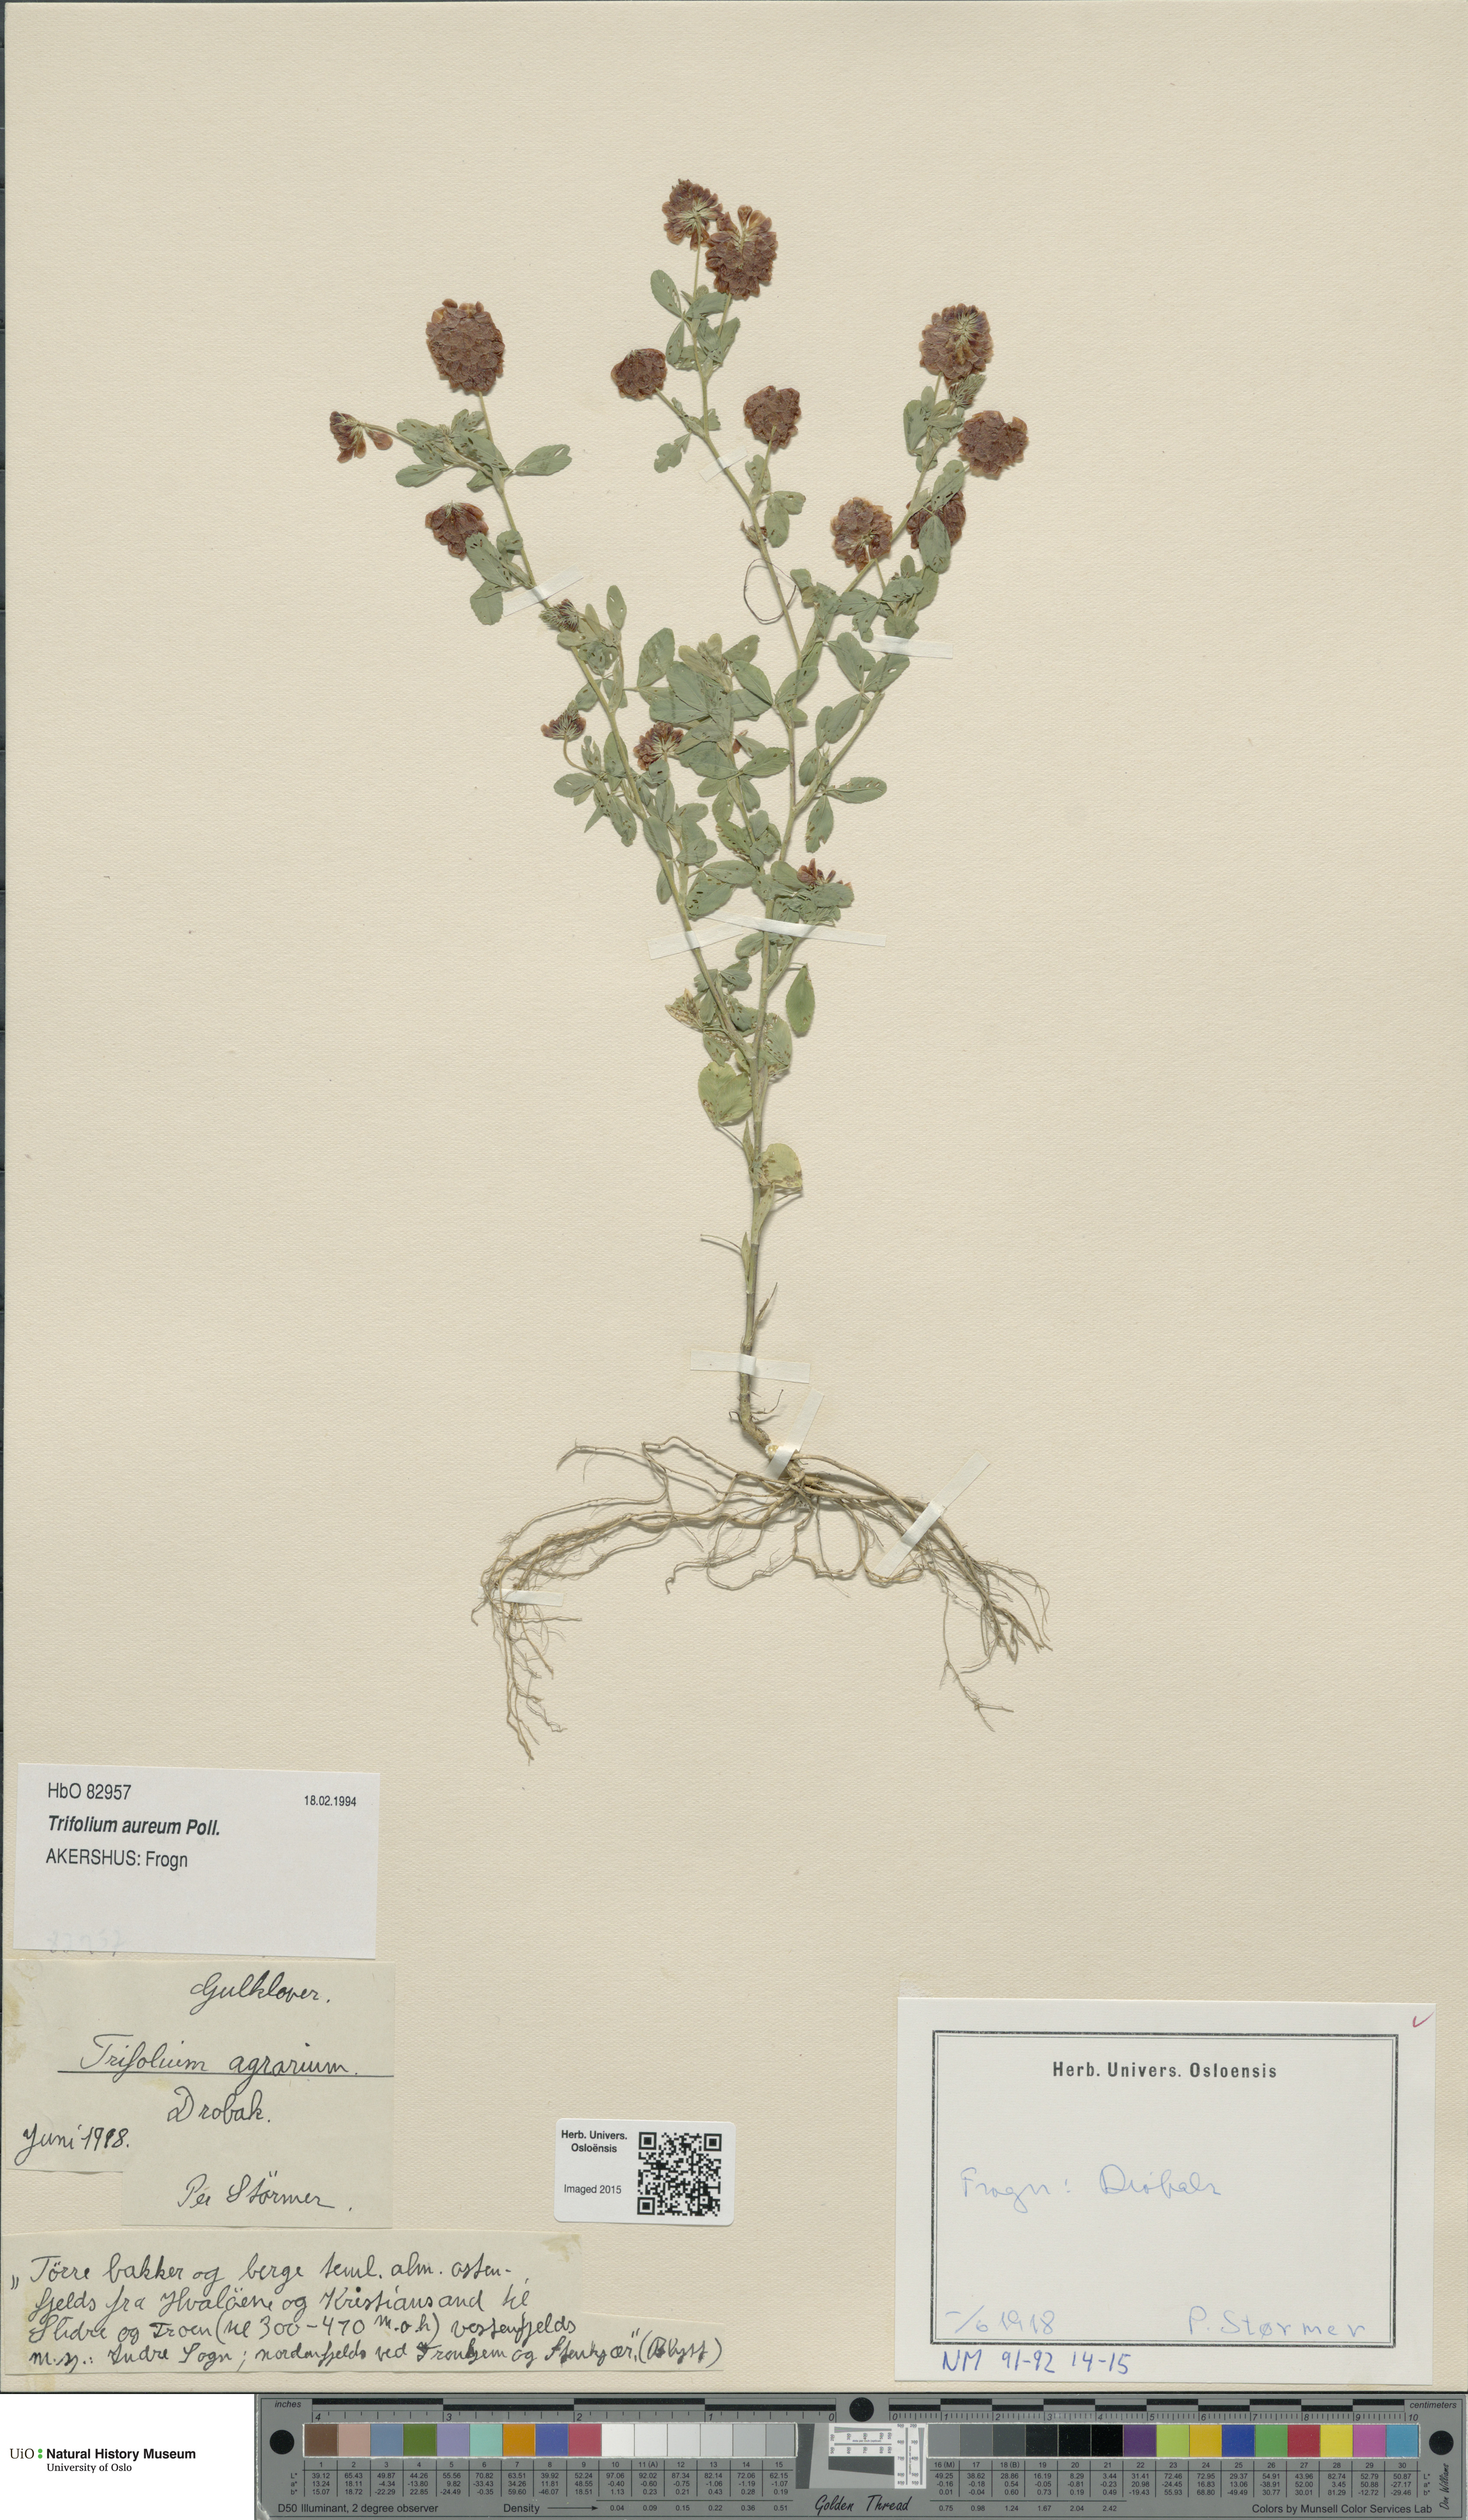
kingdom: Plantae
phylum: Tracheophyta
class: Magnoliopsida
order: Fabales
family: Fabaceae
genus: Trifolium
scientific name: Trifolium aureum
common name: Golden clover
